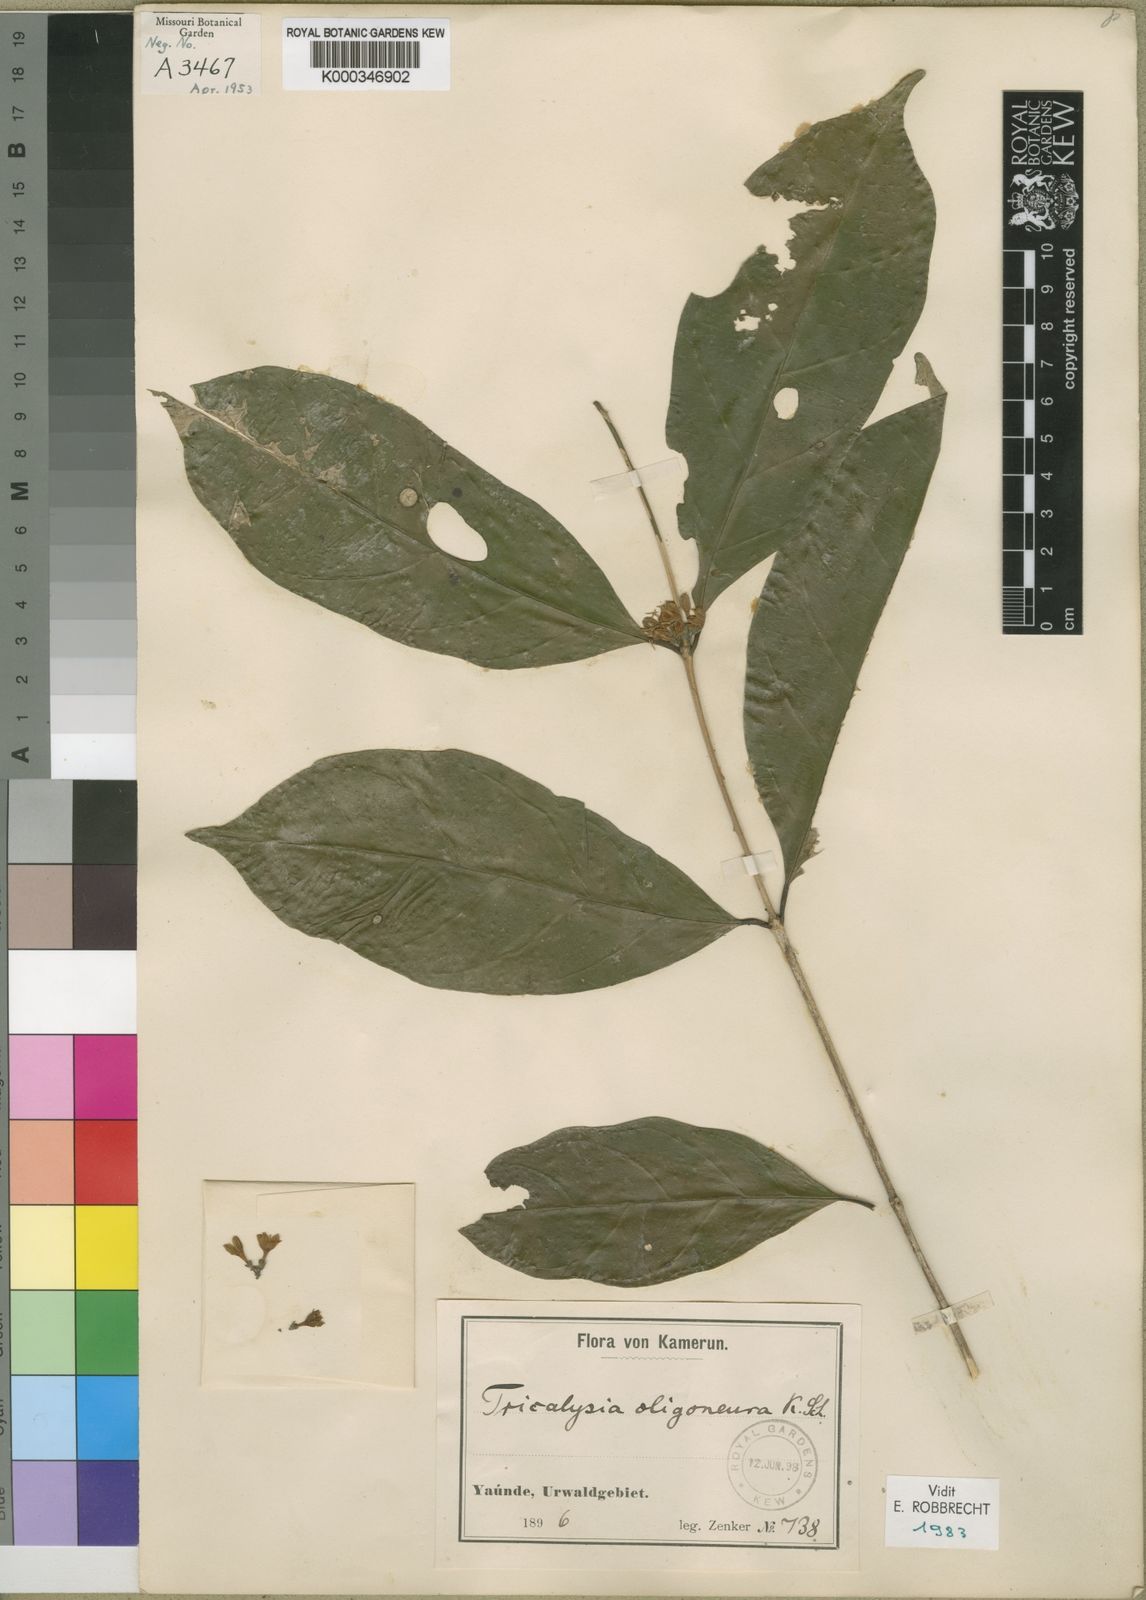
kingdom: Plantae
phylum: Tracheophyta
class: Magnoliopsida
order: Gentianales
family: Rubiaceae
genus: Tricalysia
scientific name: Tricalysia oligoneura
